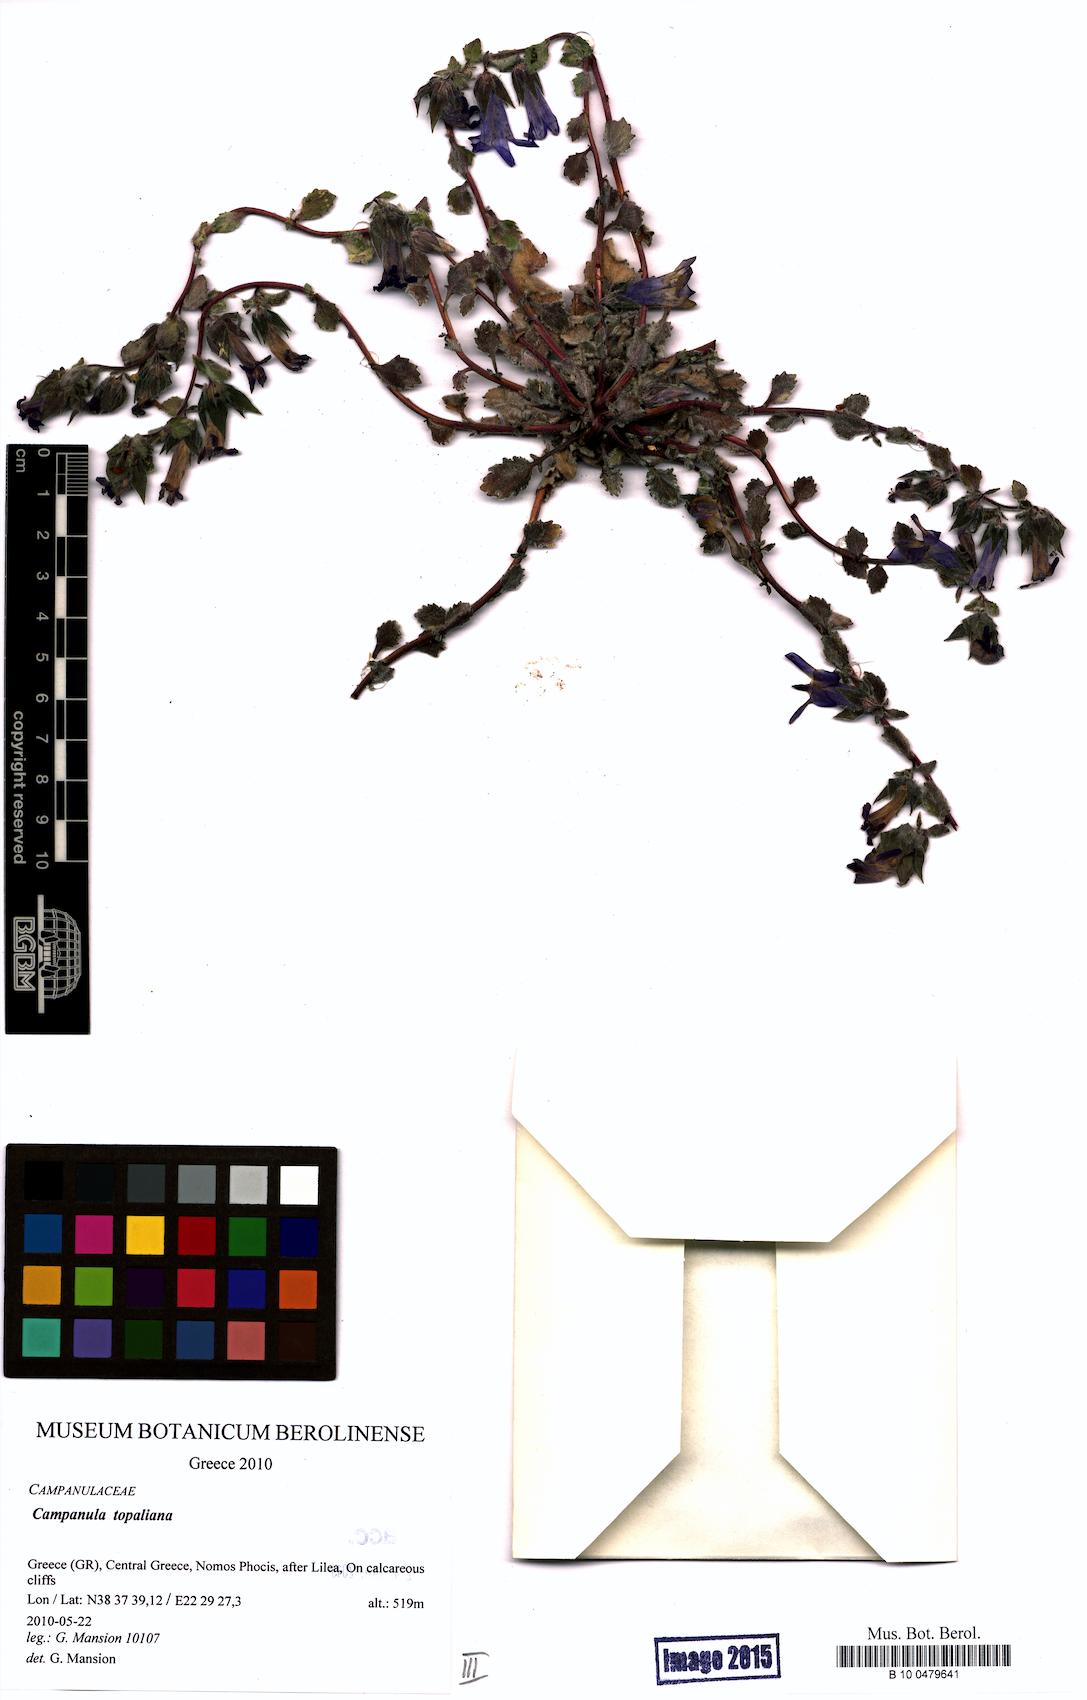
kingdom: Plantae
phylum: Tracheophyta
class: Magnoliopsida
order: Asterales
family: Campanulaceae
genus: Campanula
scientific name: Campanula topaliana
